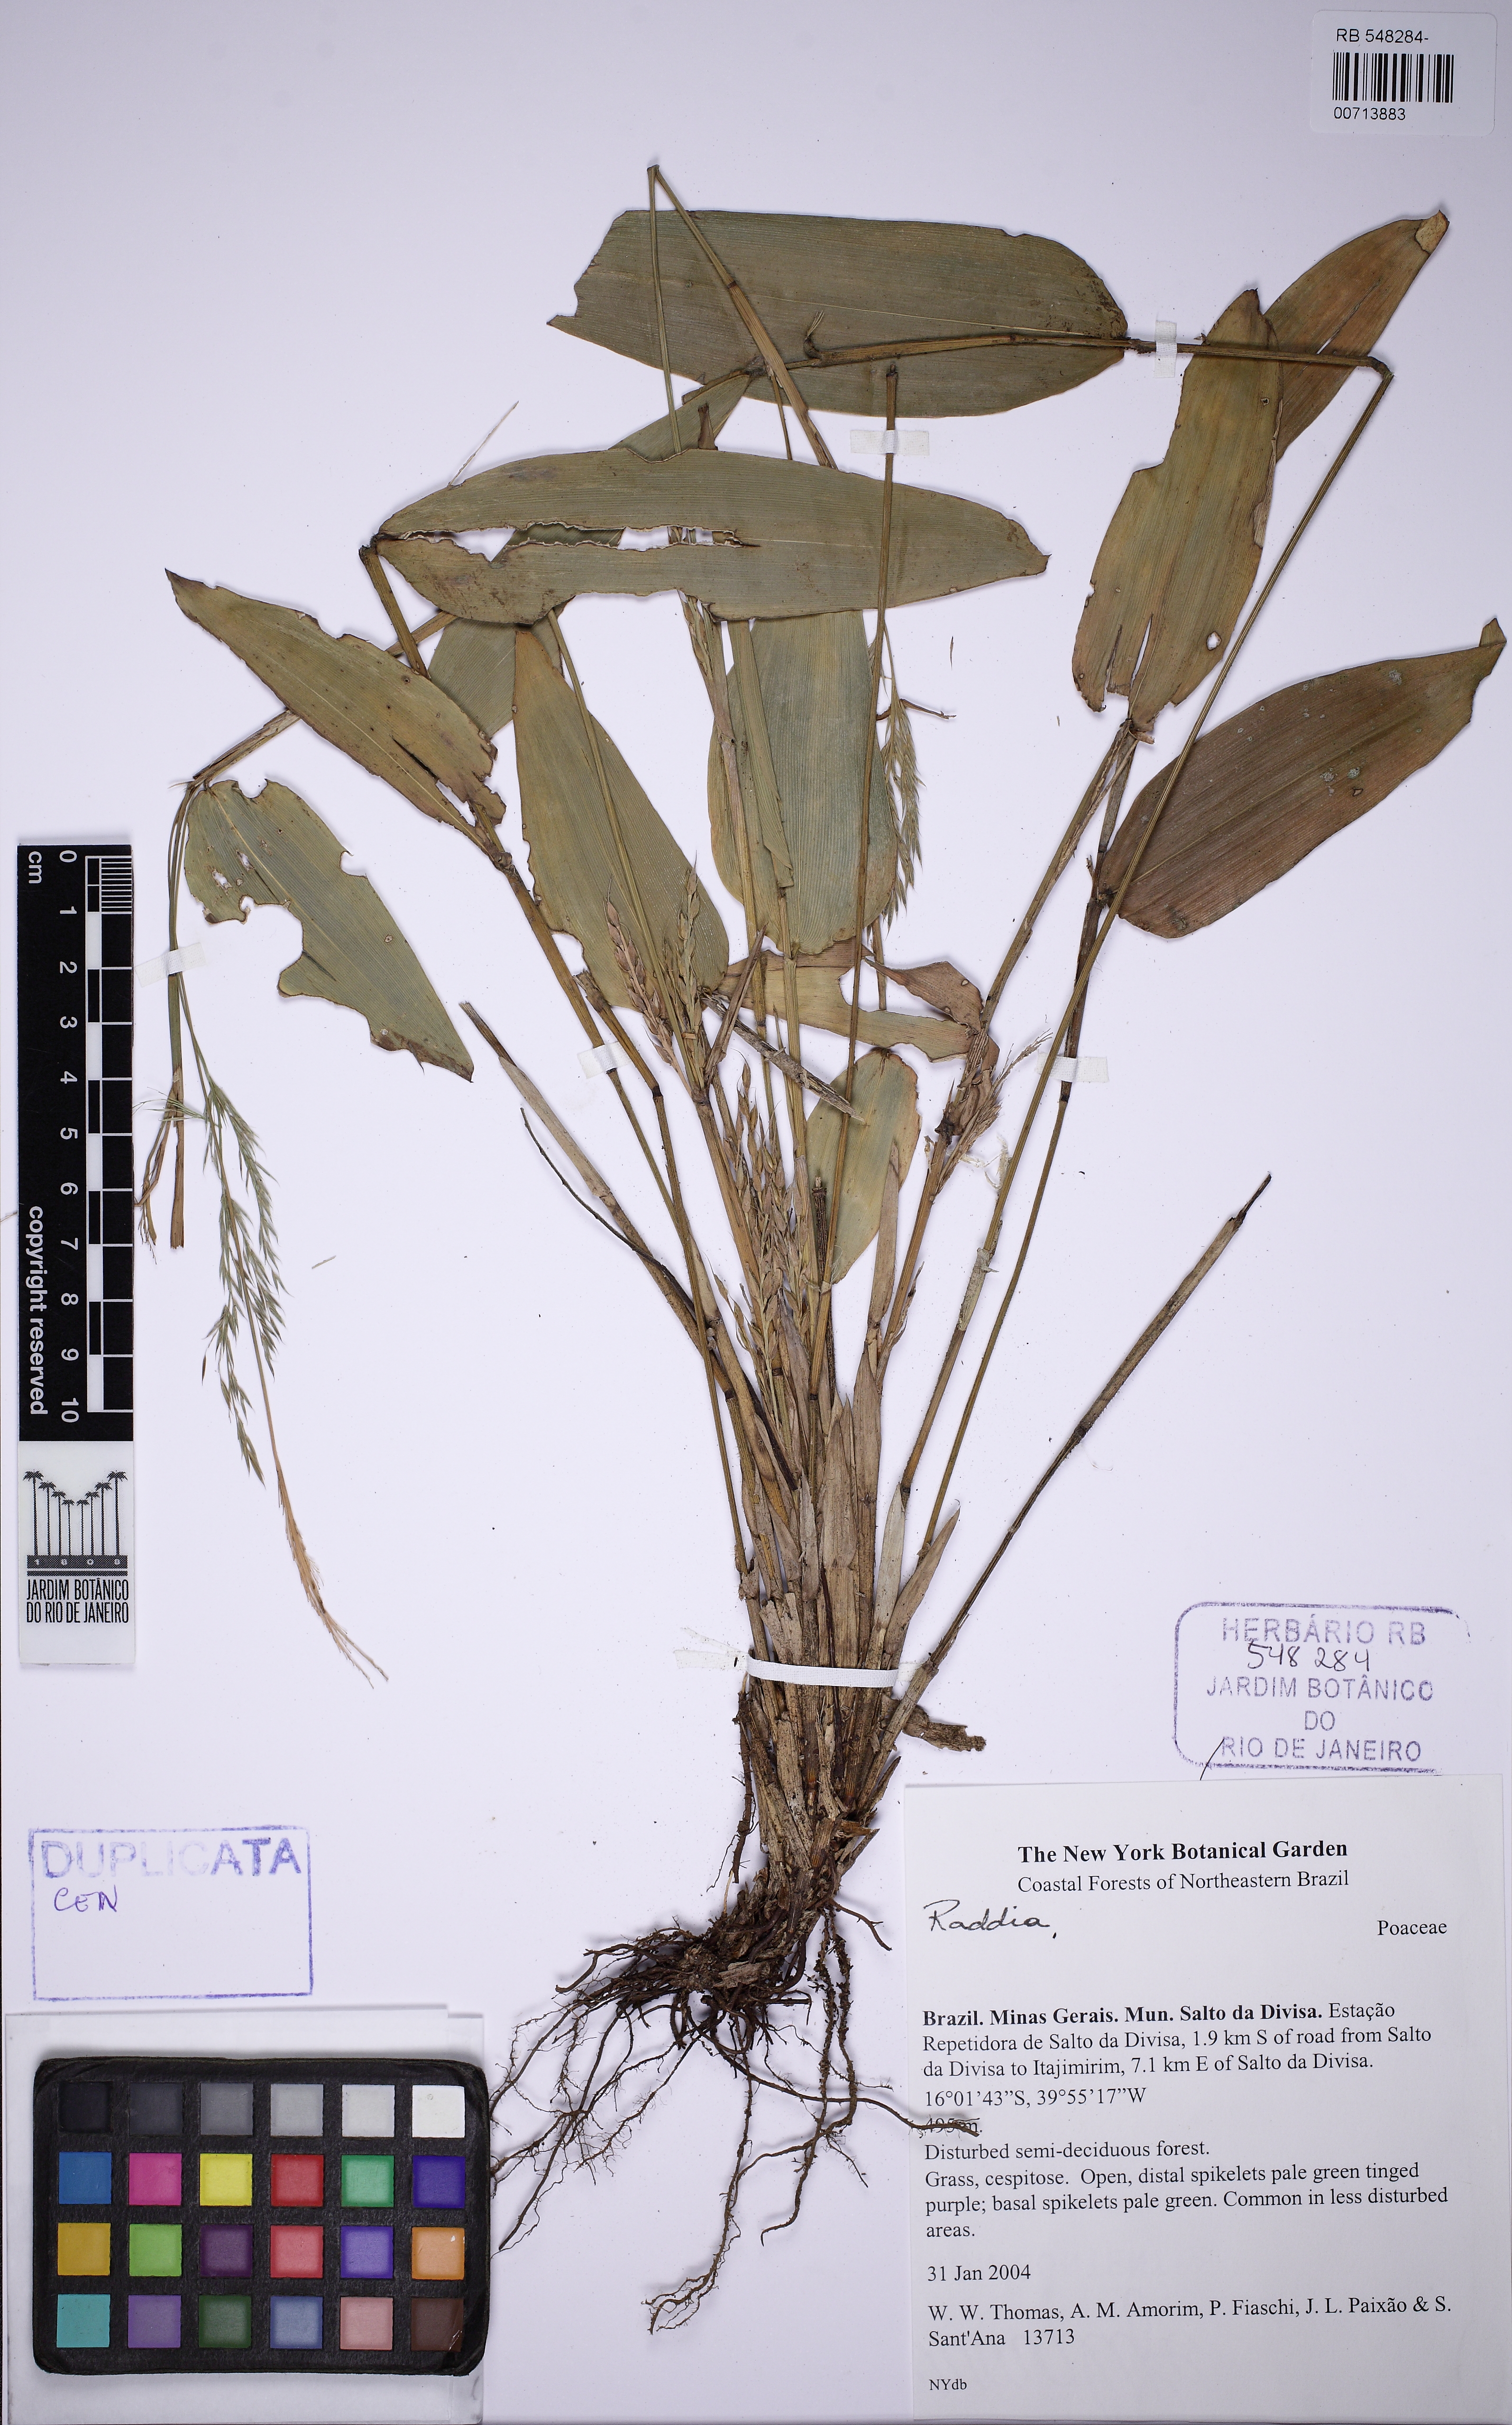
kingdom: Plantae
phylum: Tracheophyta
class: Liliopsida
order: Poales
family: Poaceae
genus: Raddia
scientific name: Raddia
